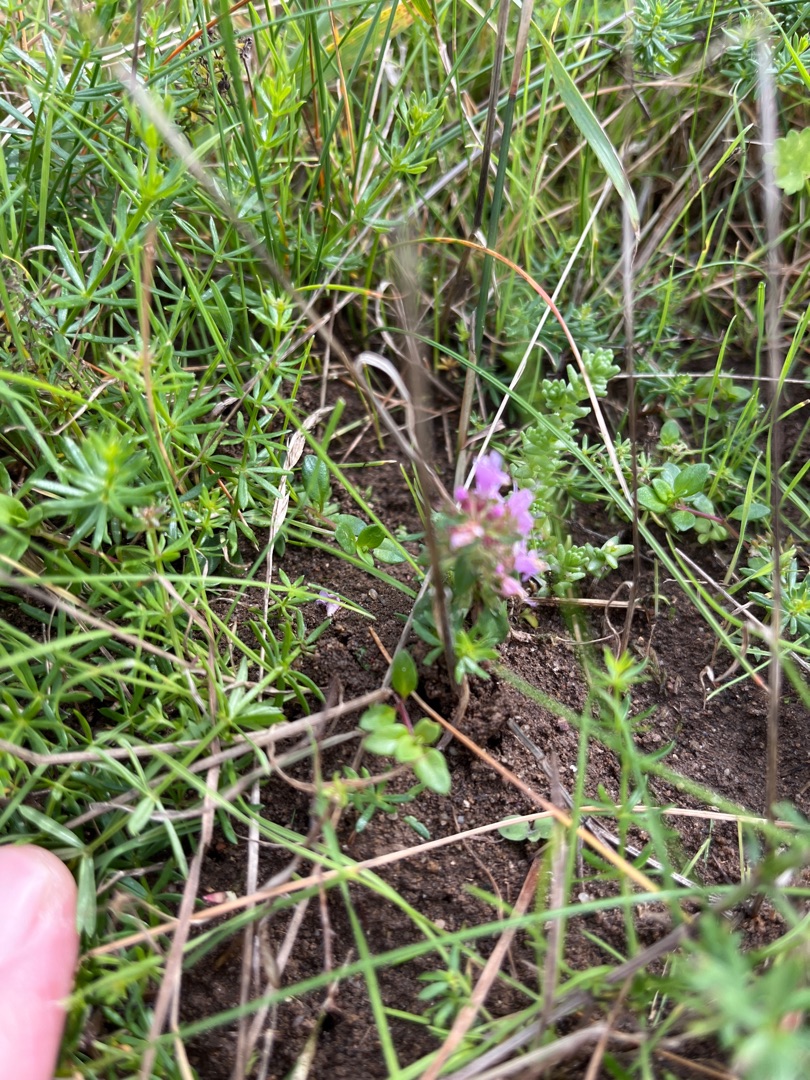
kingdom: Plantae
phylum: Tracheophyta
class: Magnoliopsida
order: Lamiales
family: Lamiaceae
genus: Thymus
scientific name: Thymus pulegioides
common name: Bredbladet timian
